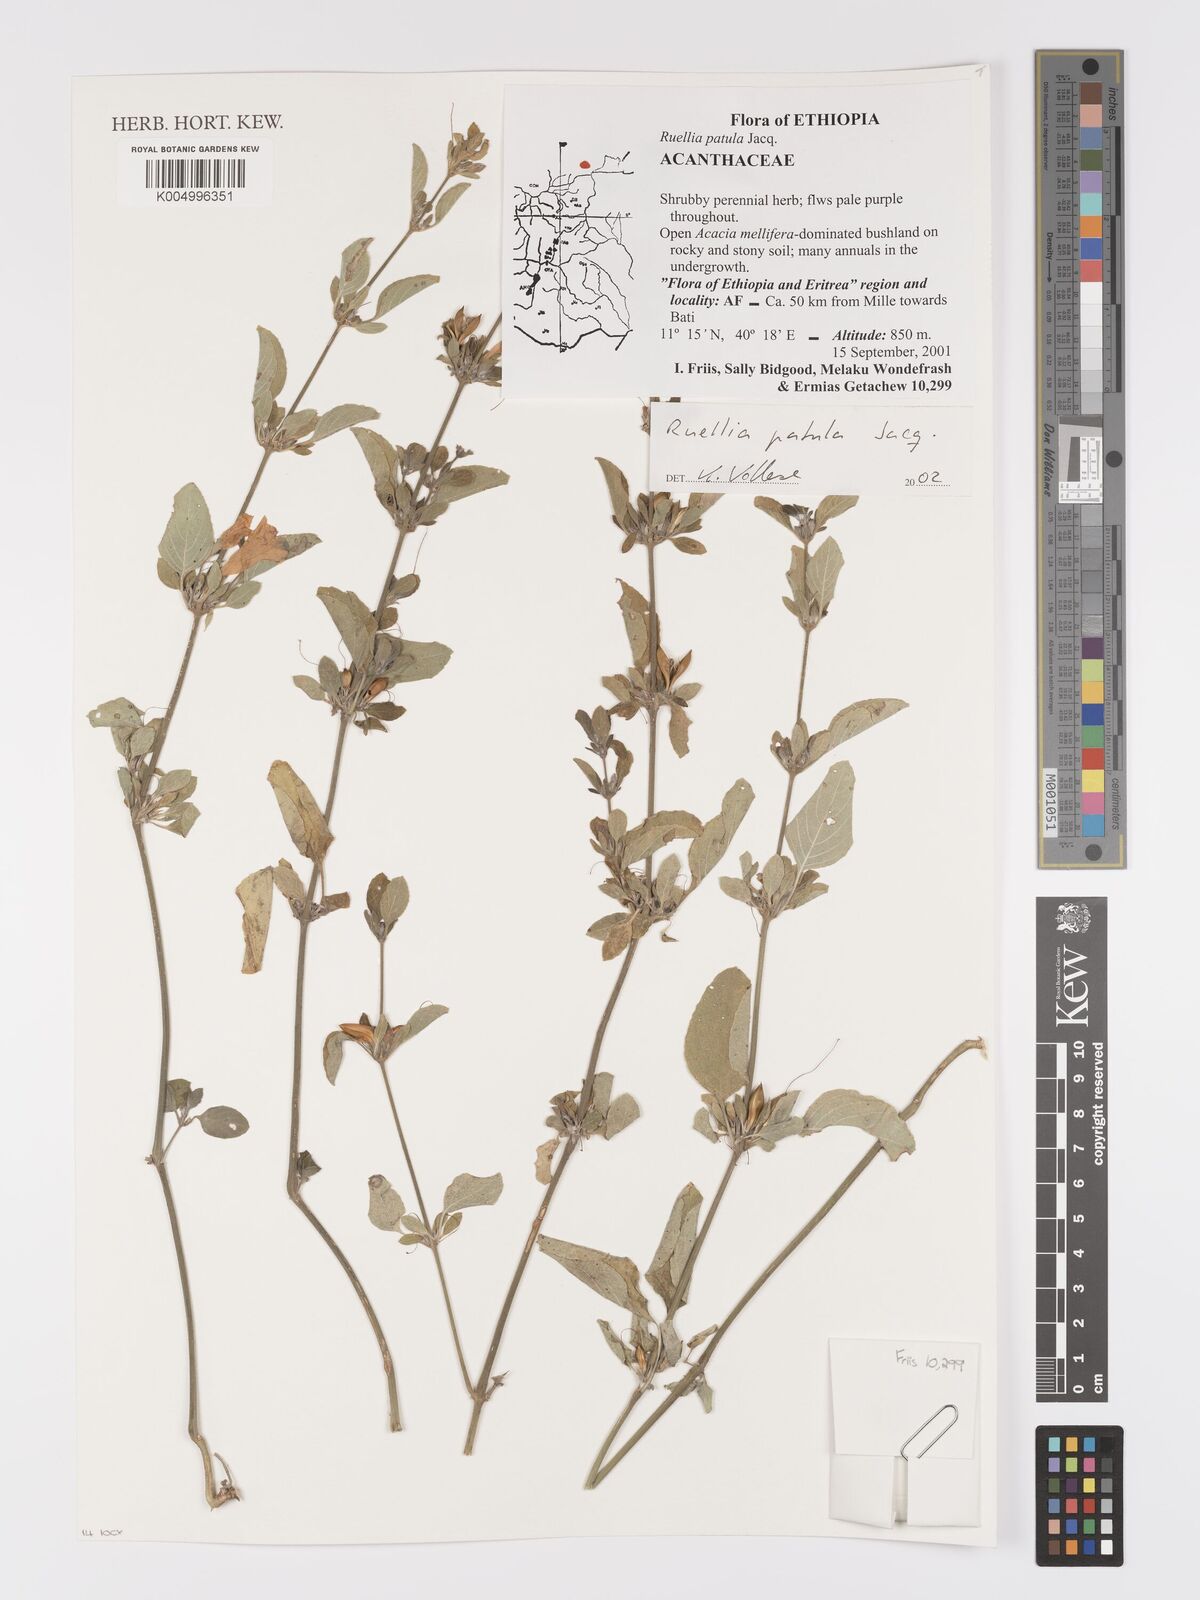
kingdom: Plantae
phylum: Tracheophyta
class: Magnoliopsida
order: Lamiales
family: Acanthaceae
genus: Ruellia
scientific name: Ruellia patula
